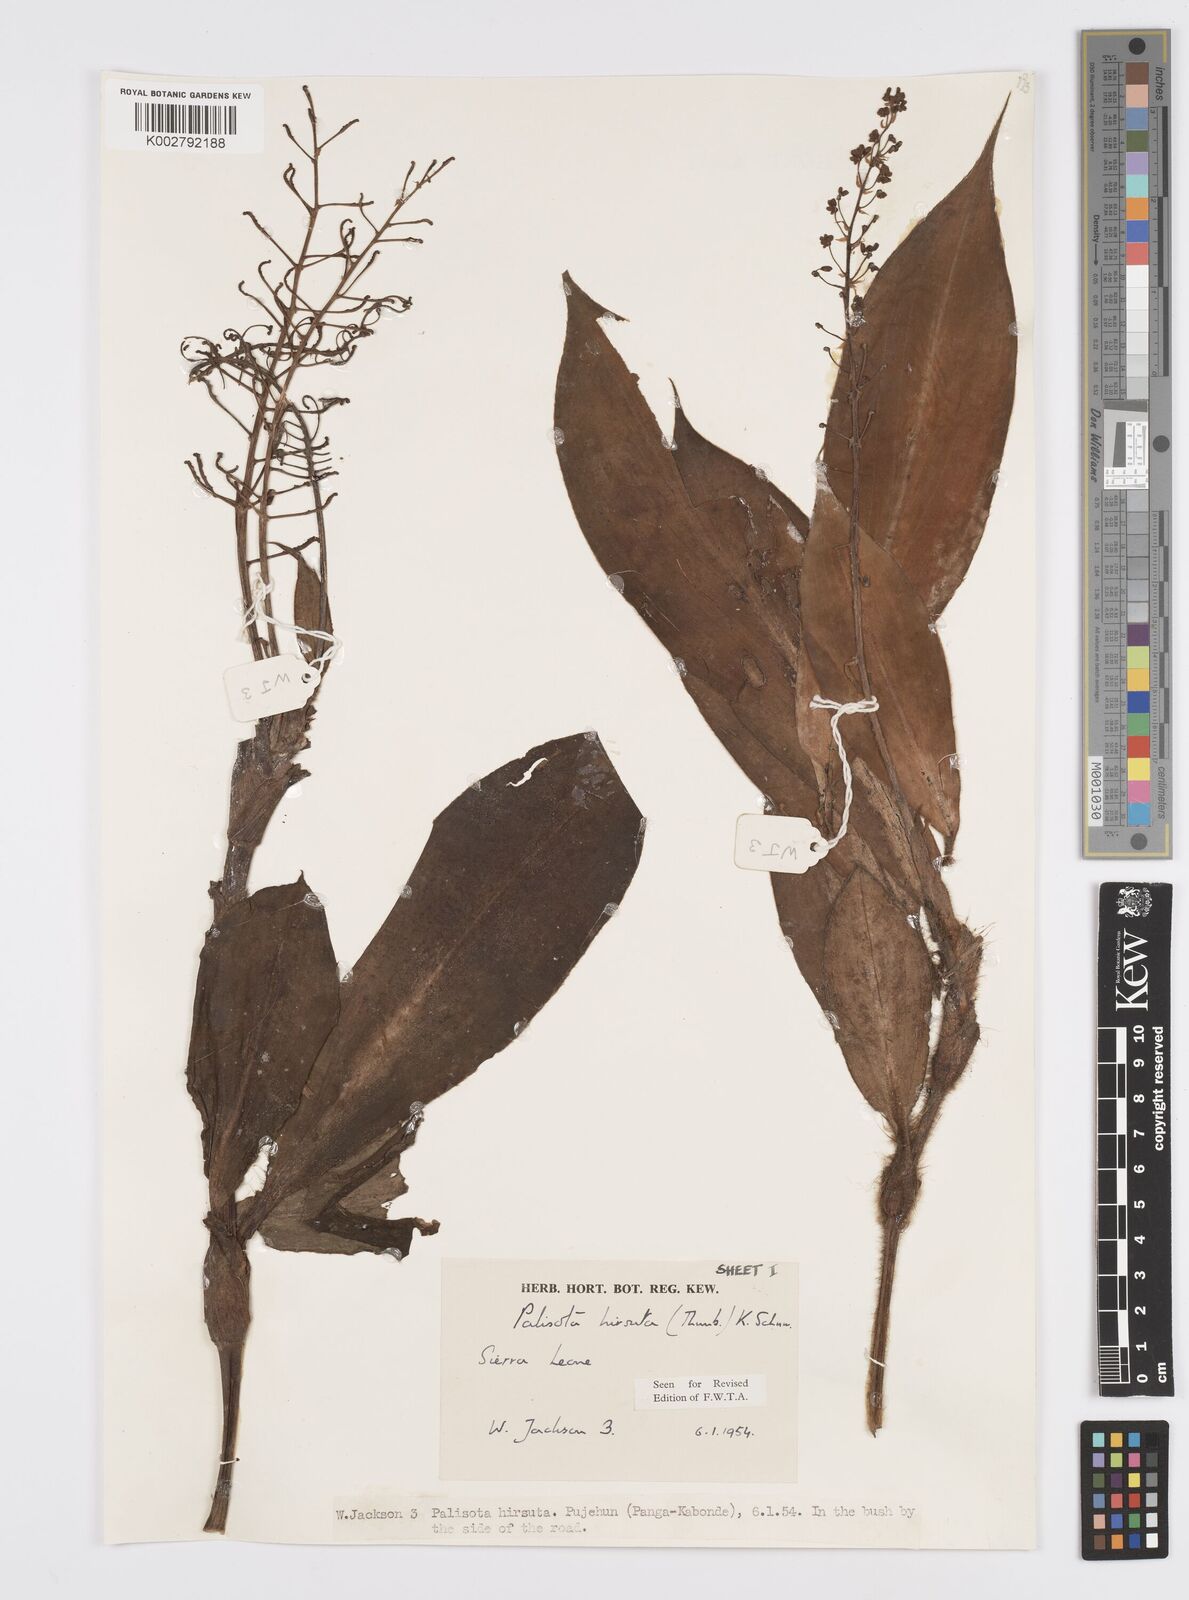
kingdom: Plantae
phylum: Tracheophyta
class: Liliopsida
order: Commelinales
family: Commelinaceae
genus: Palisota
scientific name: Palisota hirsuta
